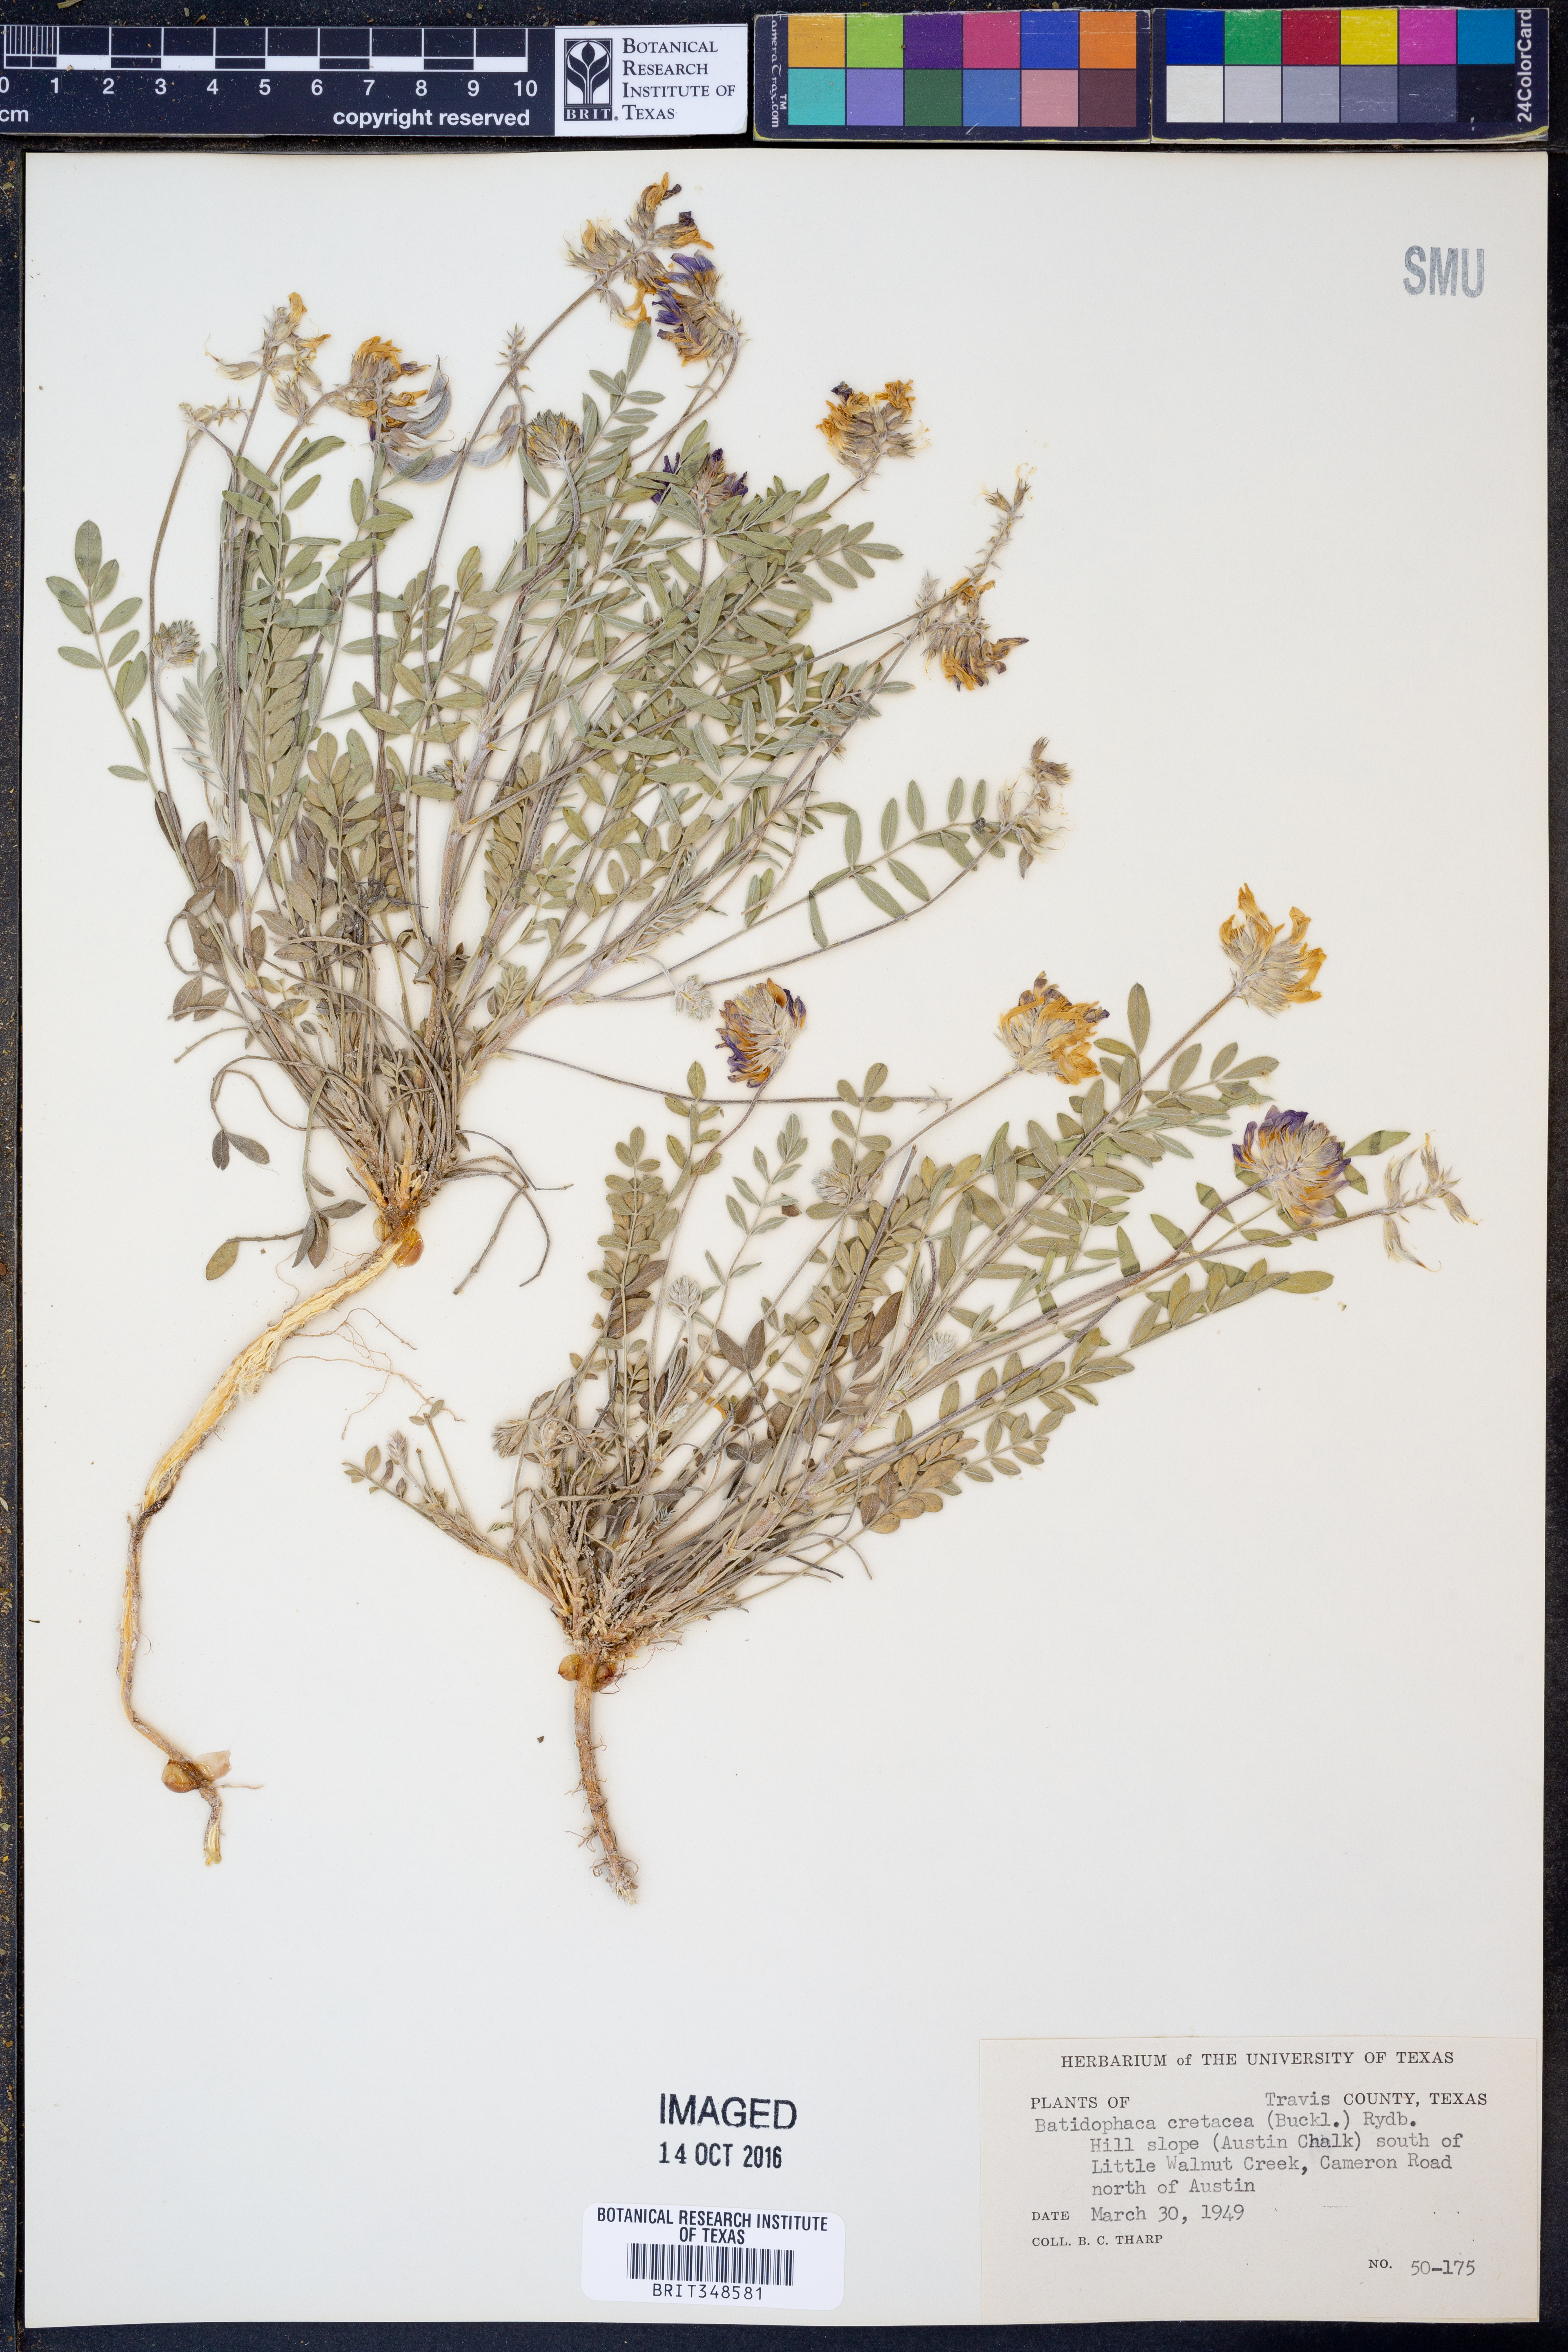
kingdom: Plantae
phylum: Tracheophyta
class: Magnoliopsida
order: Fabales
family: Fabaceae
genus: Astragalus
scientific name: Astragalus lotiflorus
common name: Lotus milk-vetch
